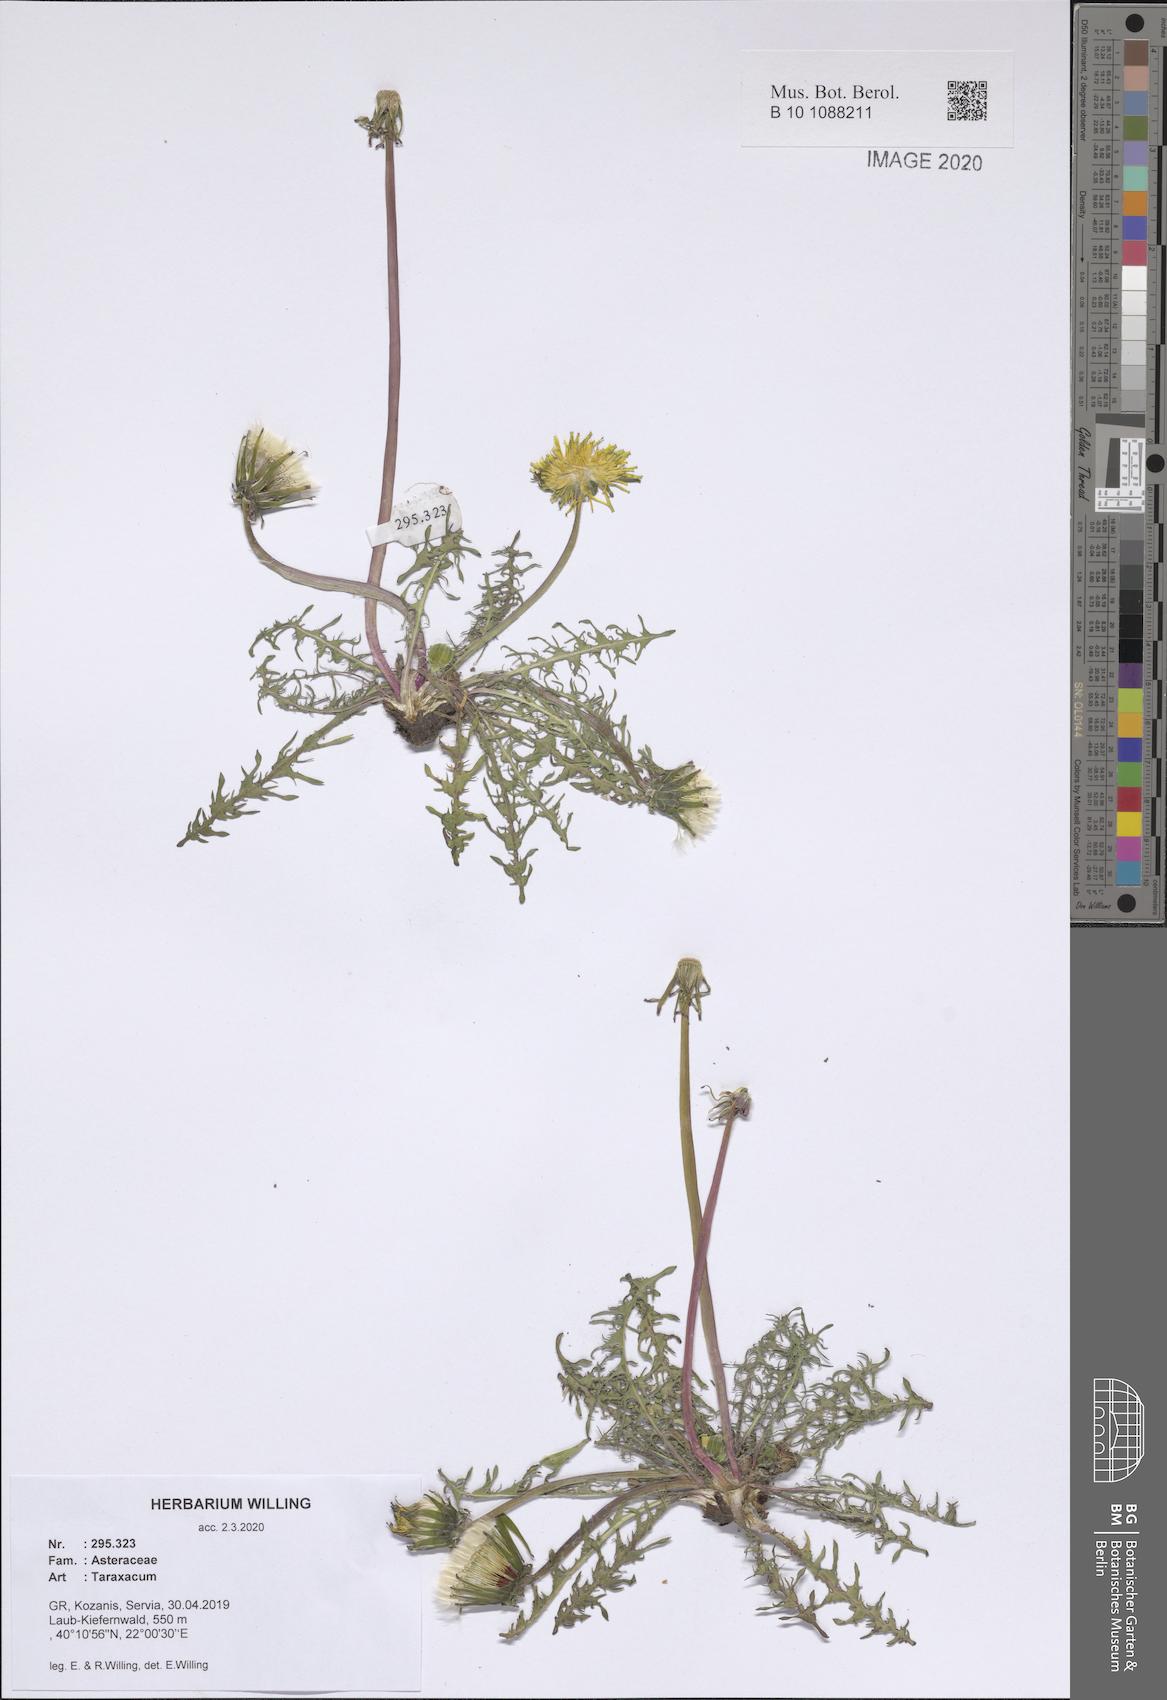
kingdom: Plantae
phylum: Tracheophyta
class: Magnoliopsida
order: Asterales
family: Asteraceae
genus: Taraxacum
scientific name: Taraxacum
